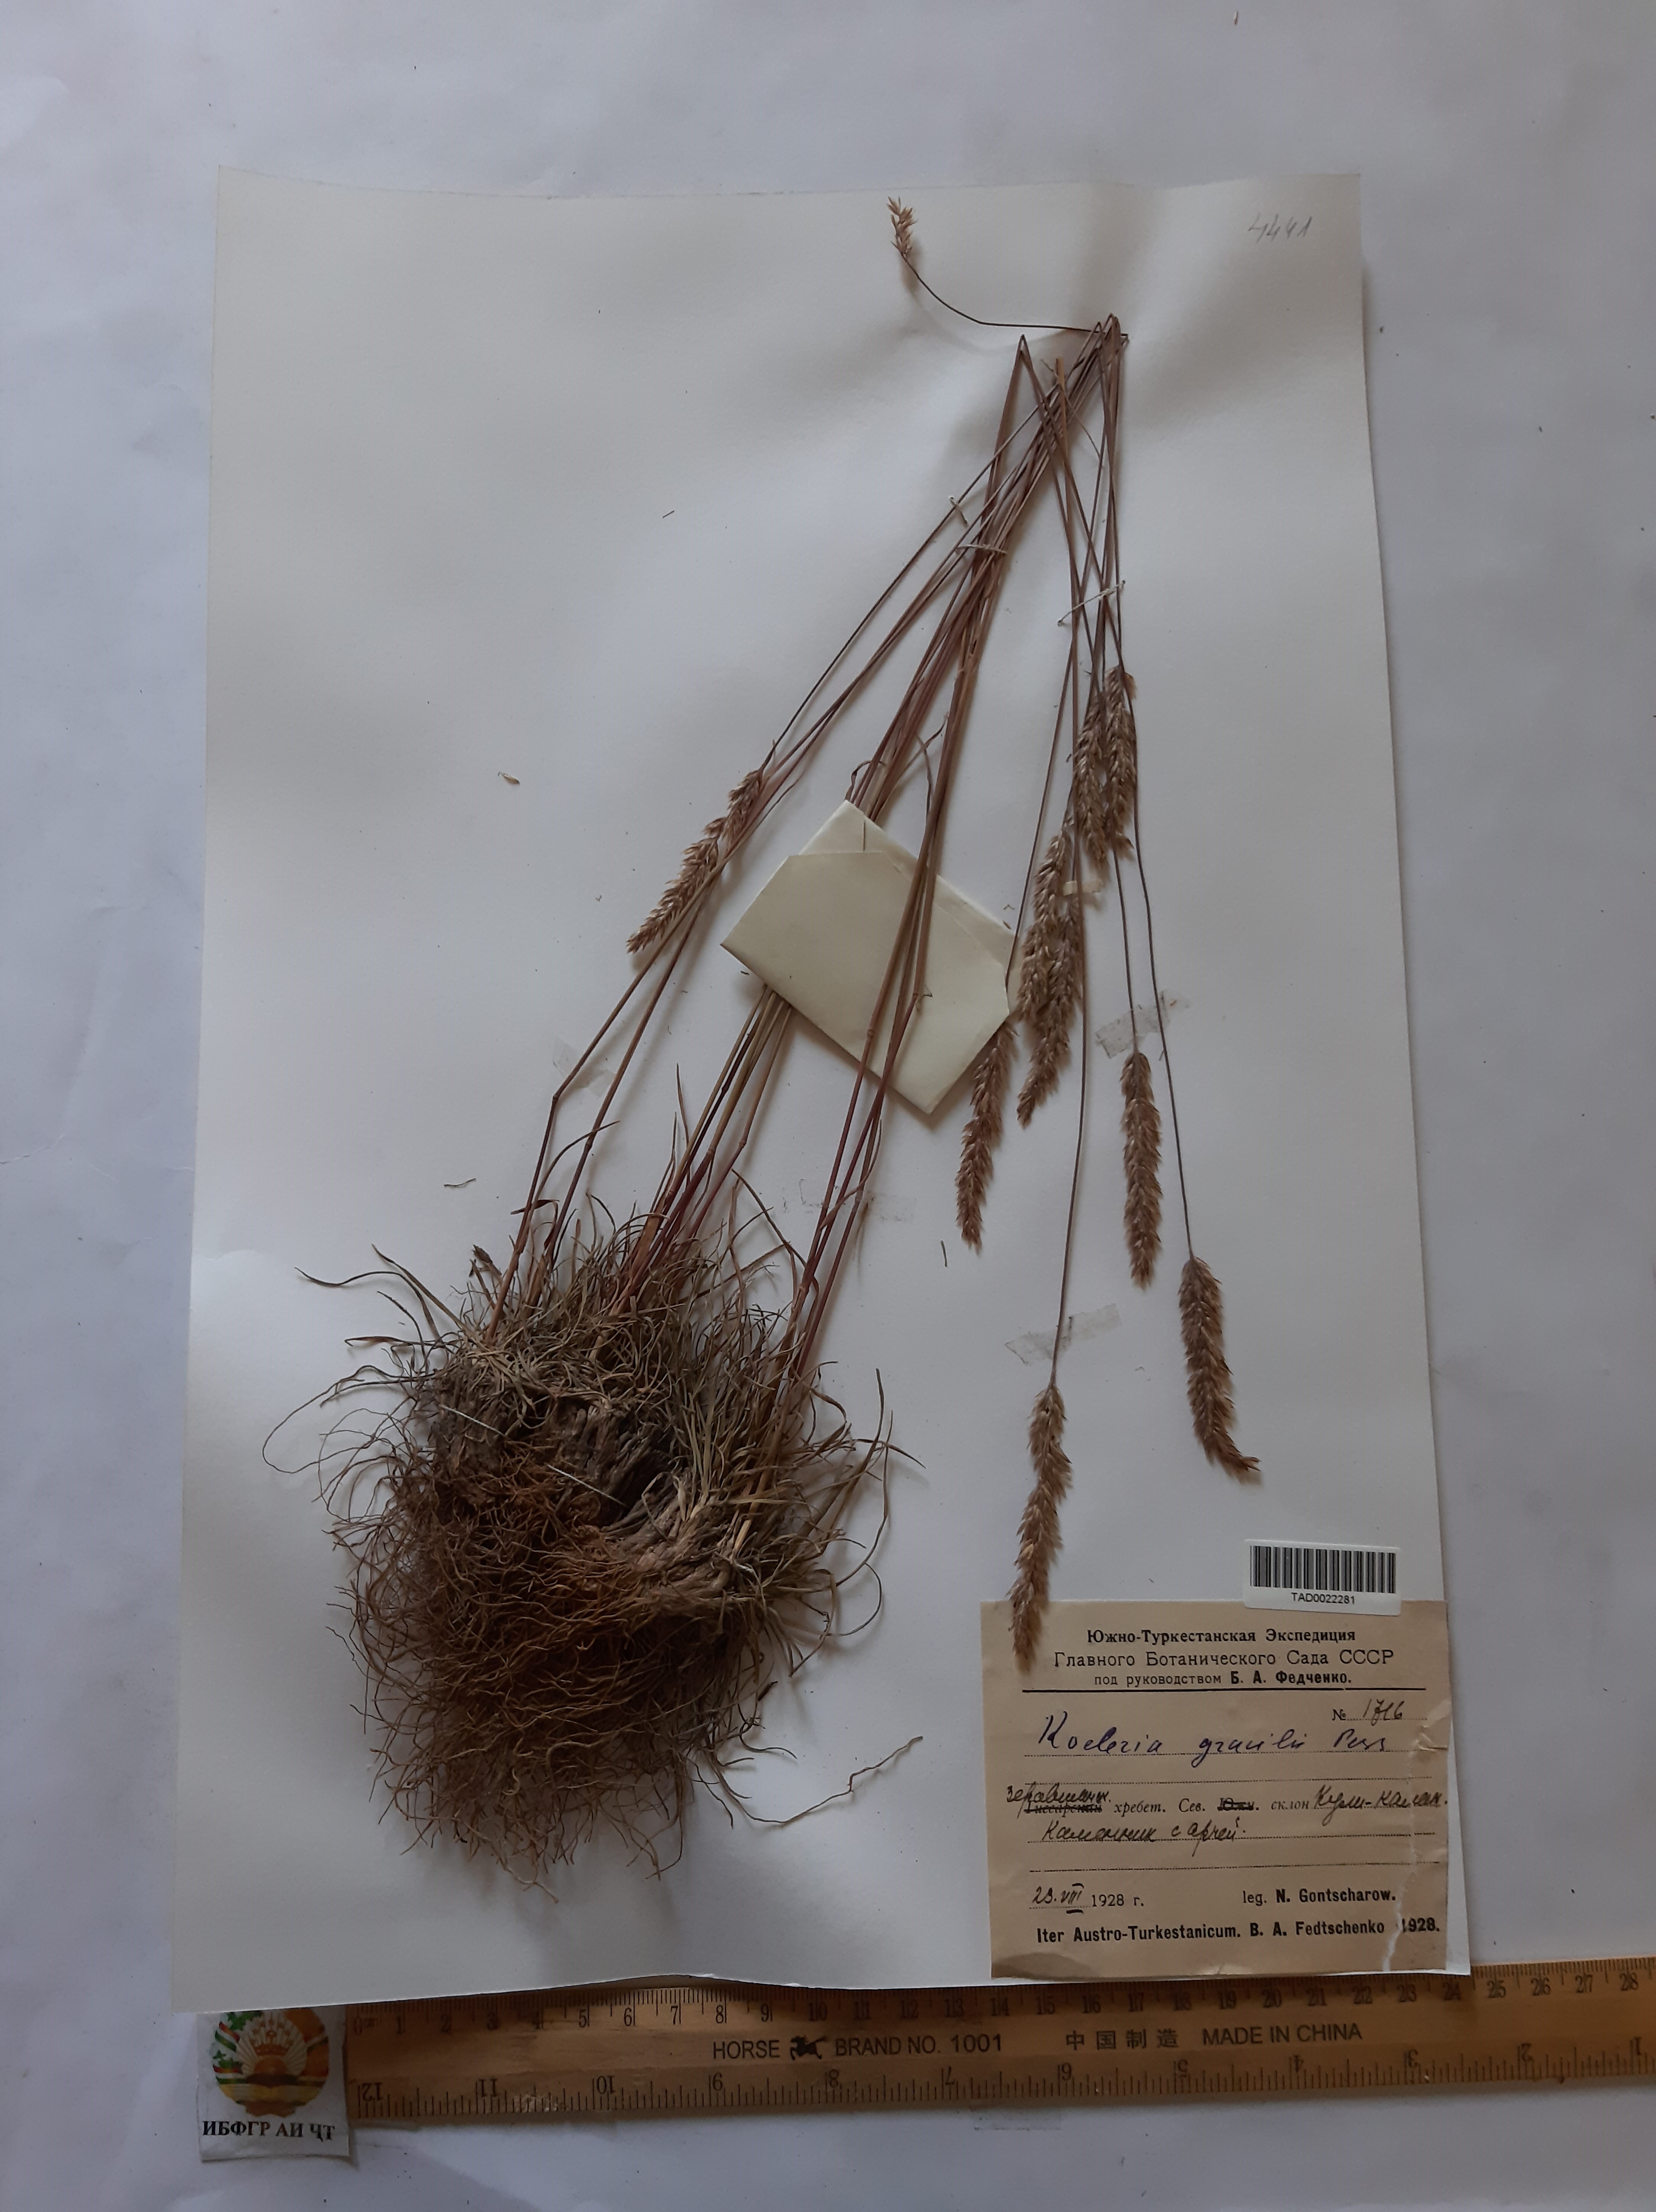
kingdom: Plantae
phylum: Tracheophyta
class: Liliopsida
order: Poales
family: Poaceae
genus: Koeleria
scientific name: Koeleria macrantha
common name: Crested hair-grass
